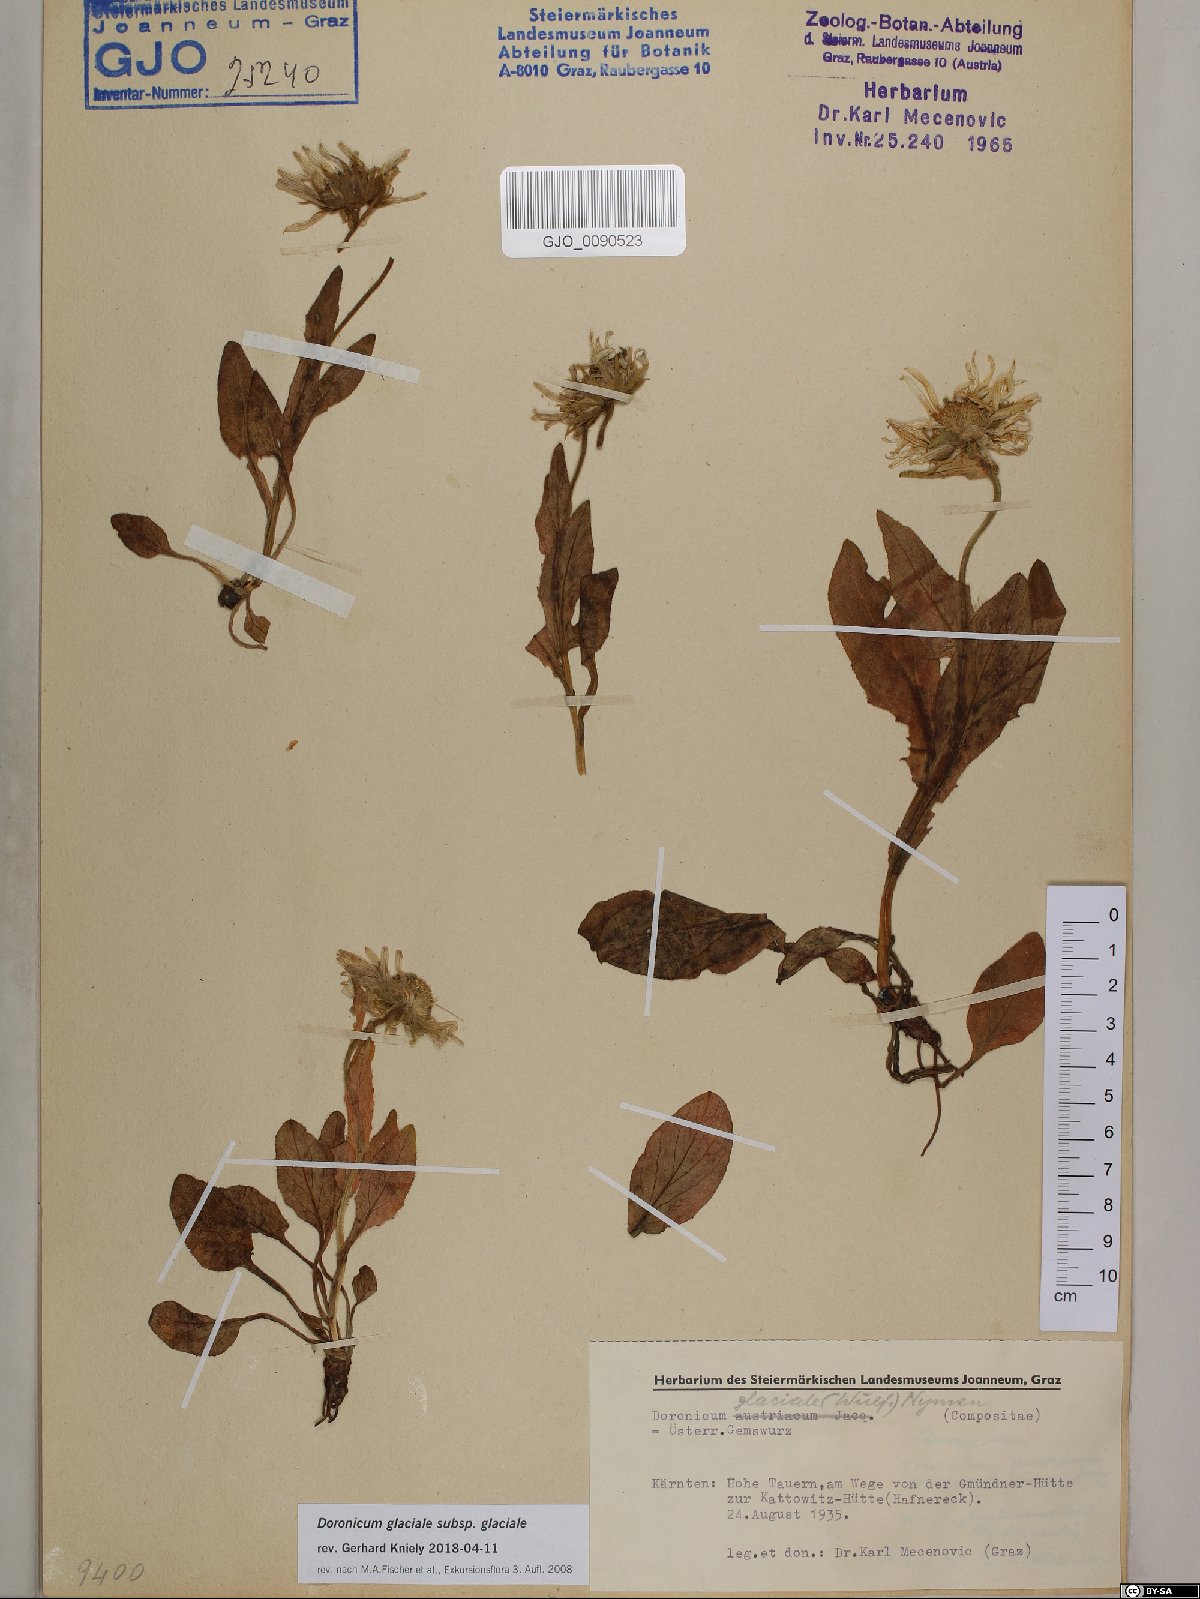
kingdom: Plantae
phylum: Tracheophyta
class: Magnoliopsida
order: Asterales
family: Asteraceae
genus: Doronicum
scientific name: Doronicum glaciale
